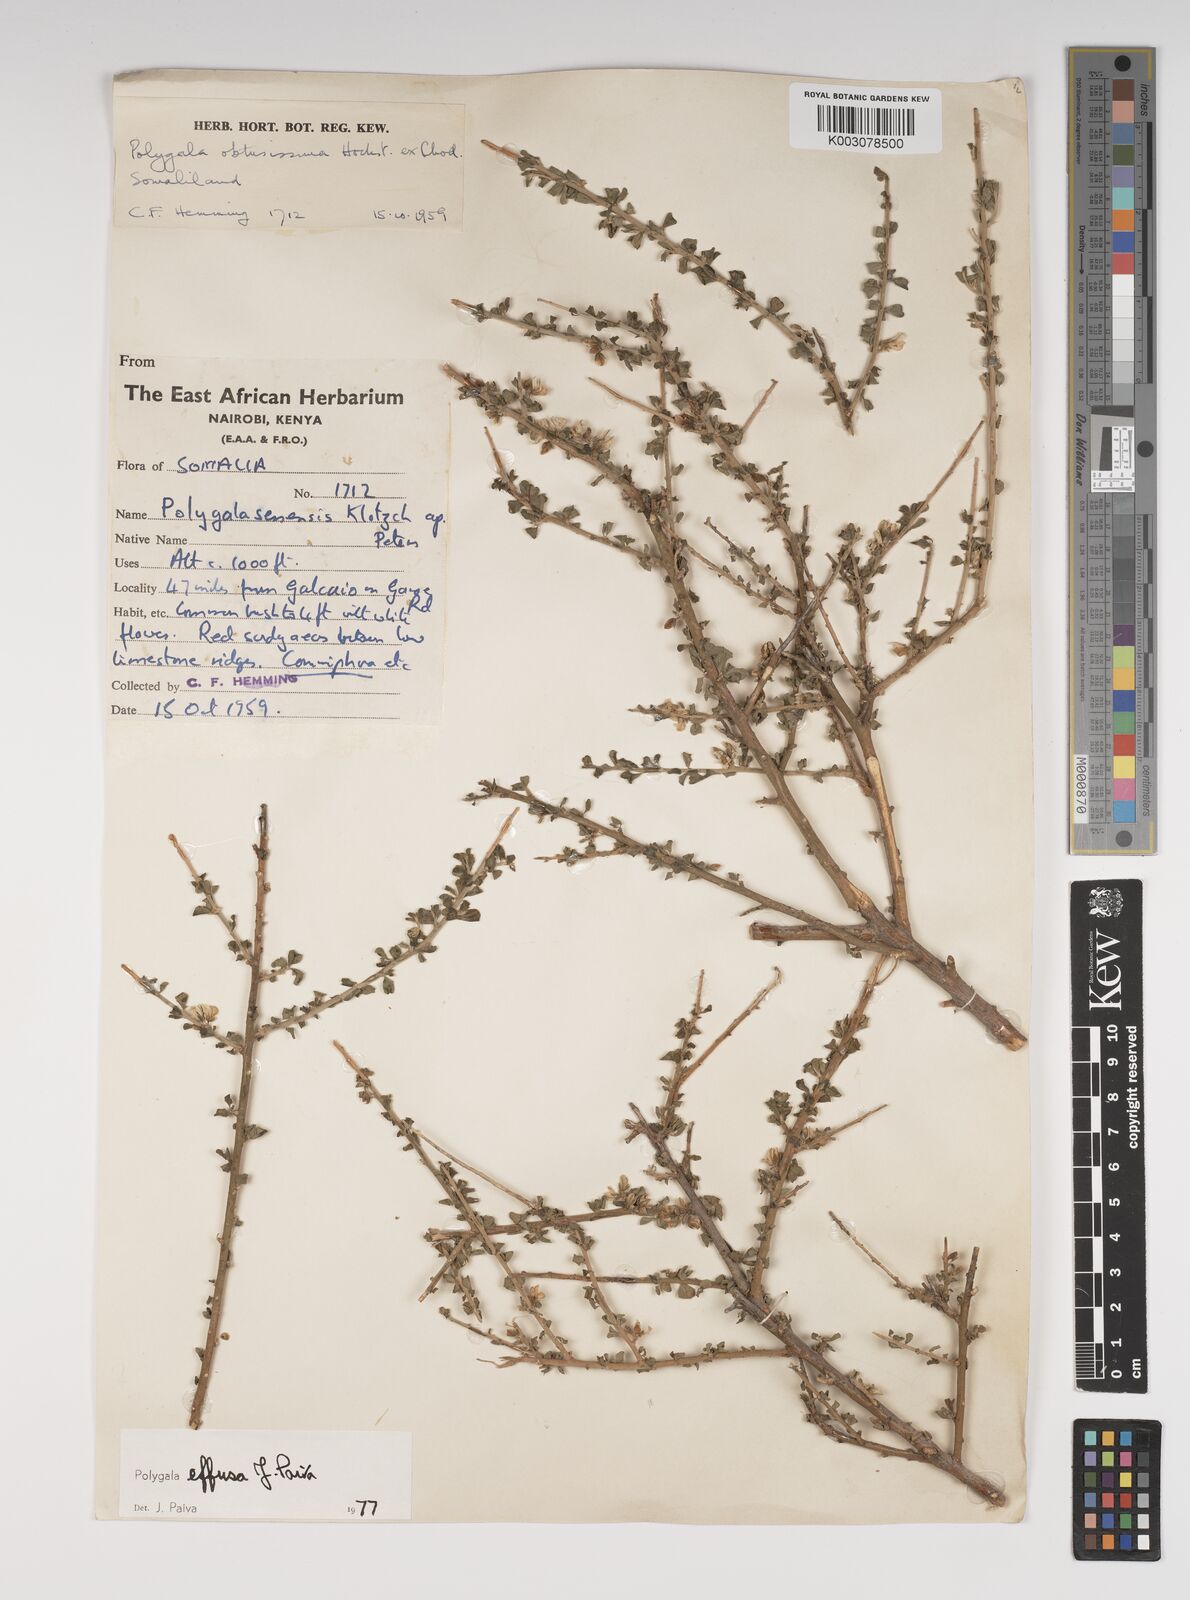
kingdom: Plantae
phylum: Tracheophyta
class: Magnoliopsida
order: Fabales
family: Polygalaceae
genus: Polygala
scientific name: Polygala effusa
